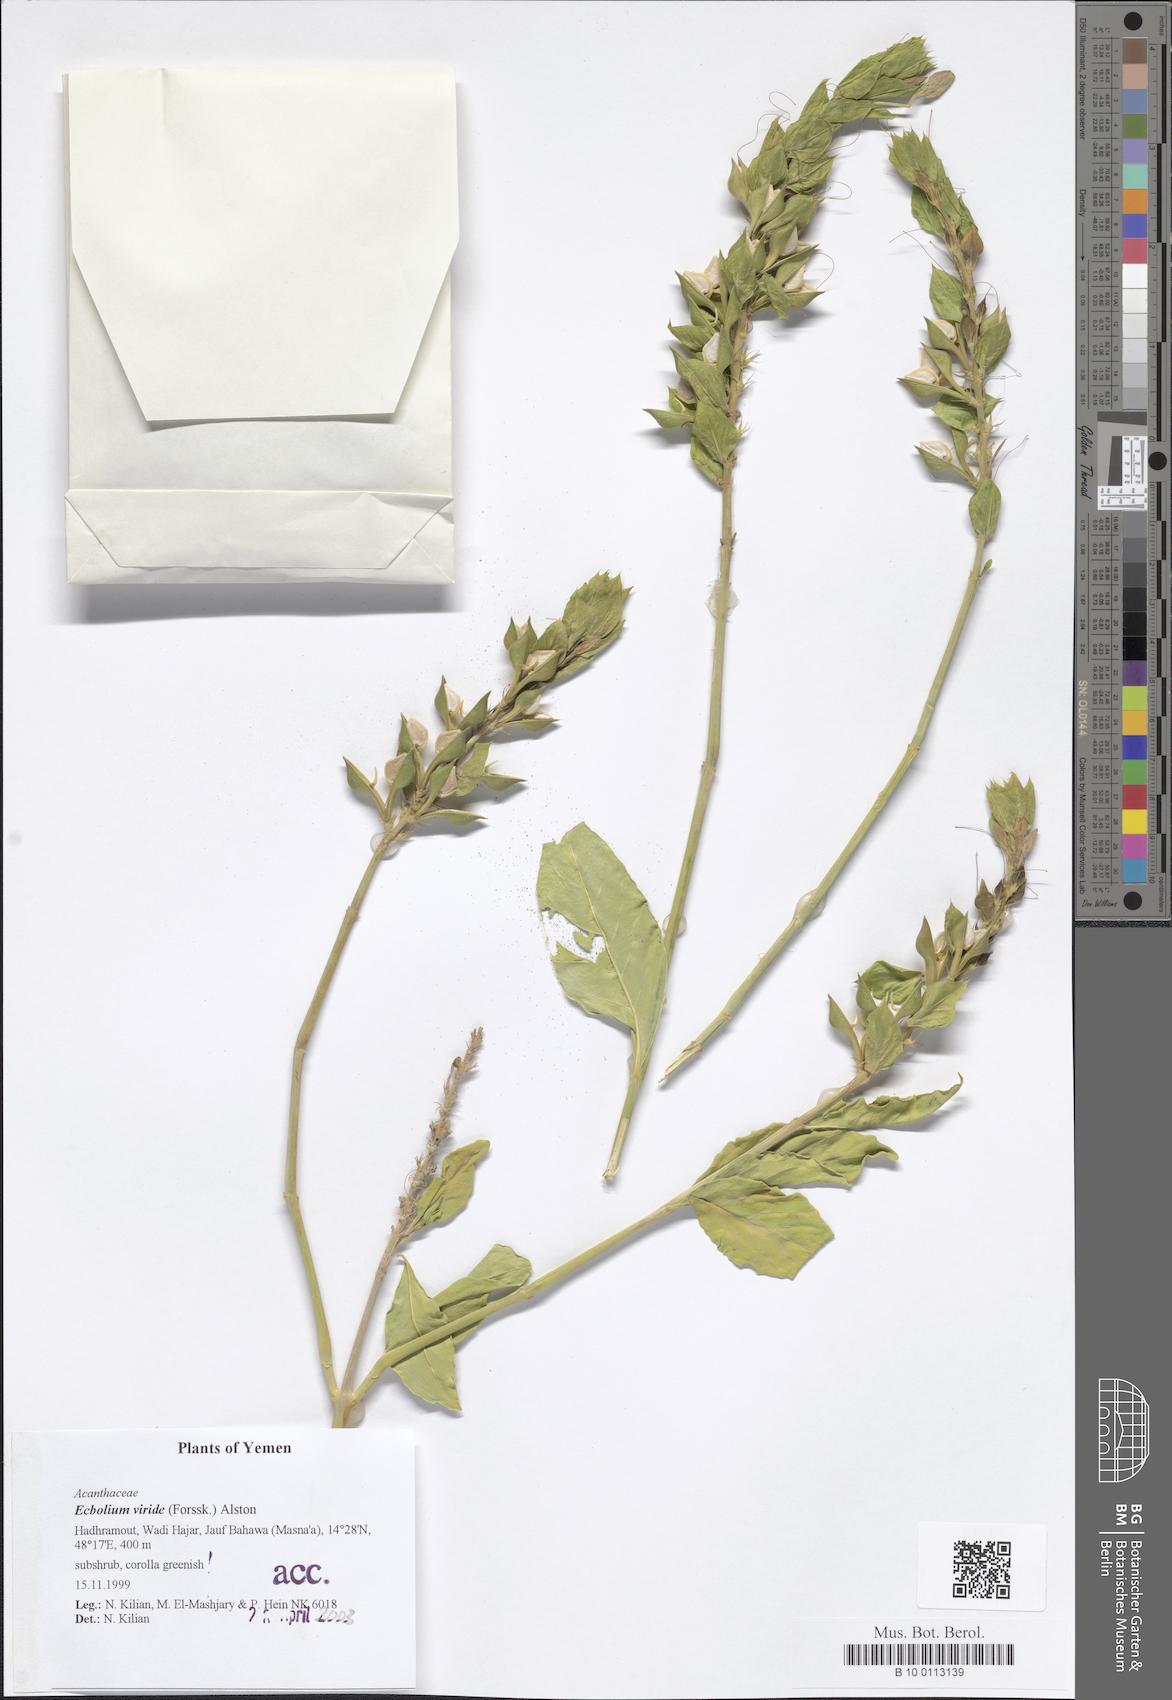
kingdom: Plantae
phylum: Tracheophyta
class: Magnoliopsida
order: Lamiales
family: Acanthaceae
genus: Ecbolium
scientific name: Ecbolium viride
